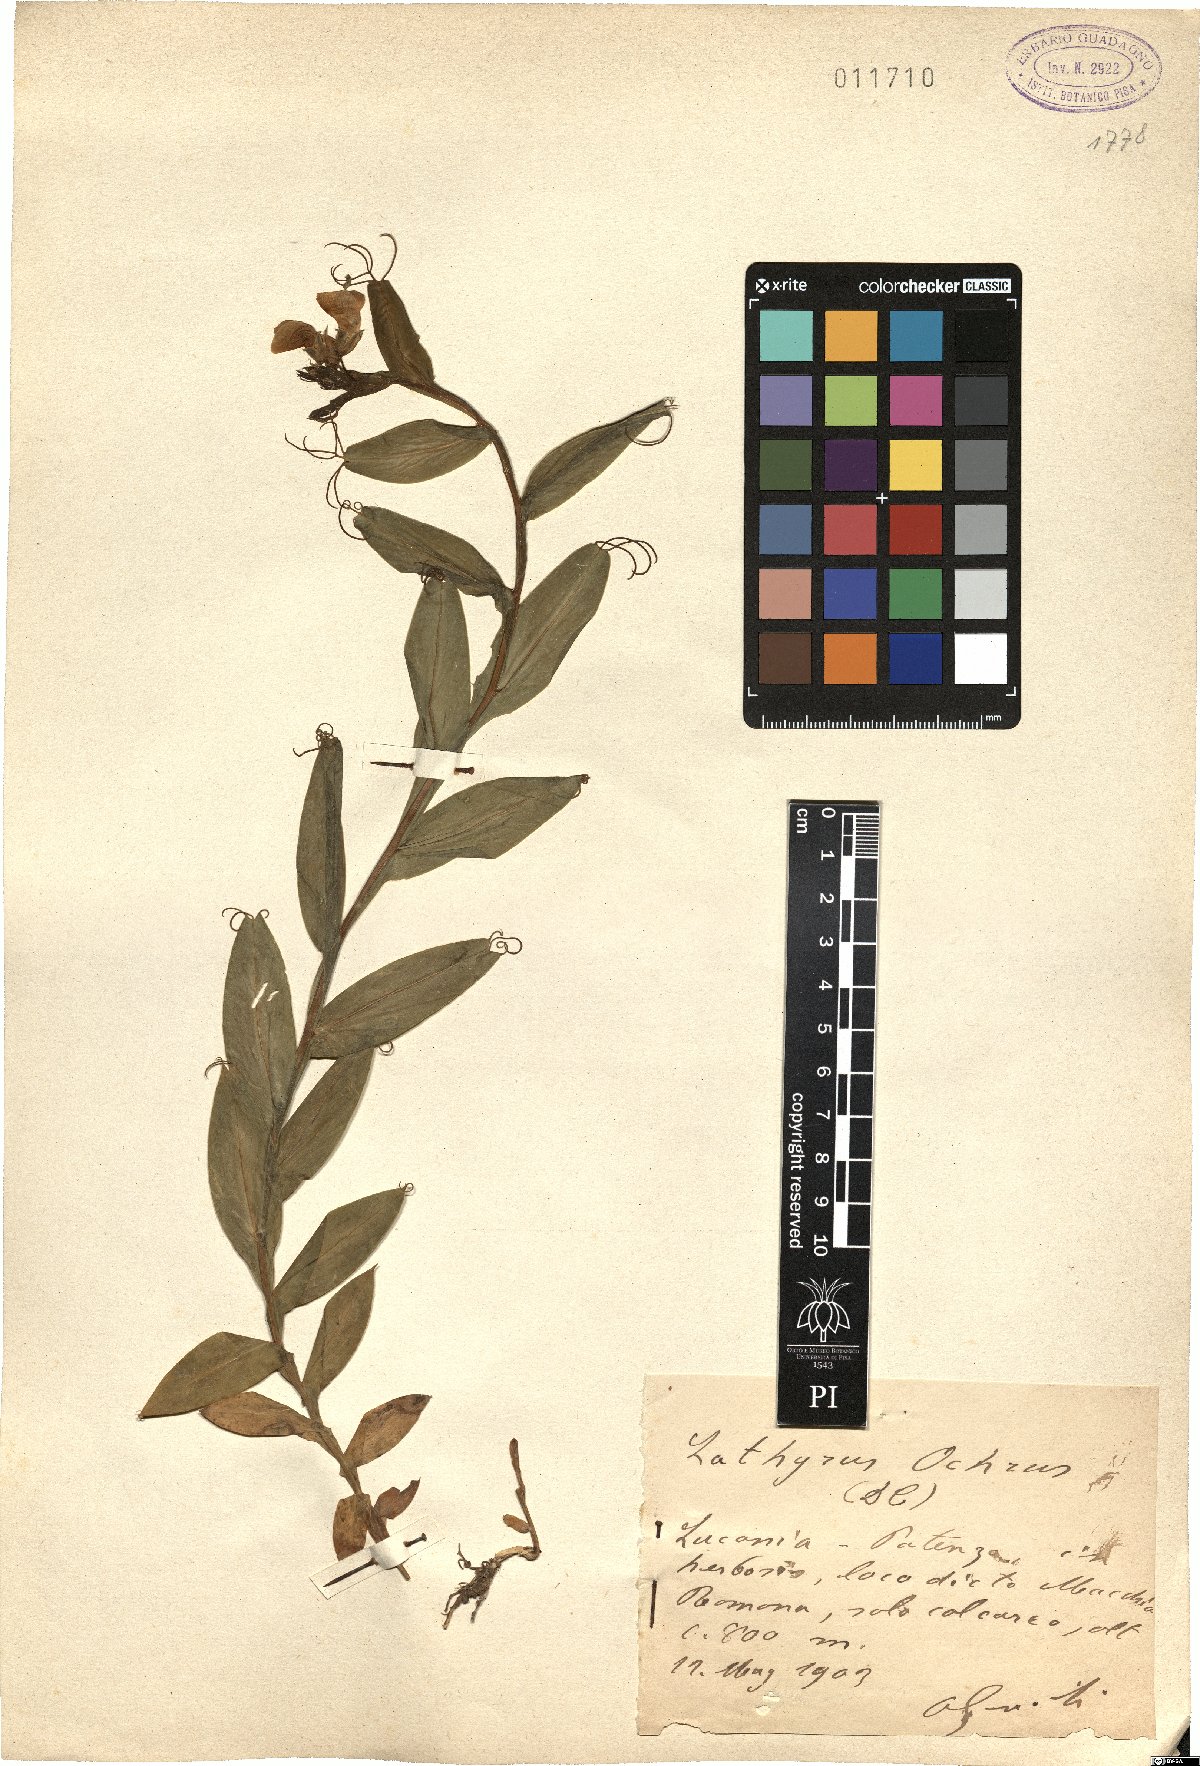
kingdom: Plantae
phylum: Tracheophyta
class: Magnoliopsida
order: Fabales
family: Fabaceae
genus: Lathyrus
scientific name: Lathyrus ochrus
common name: Winged vetchling
